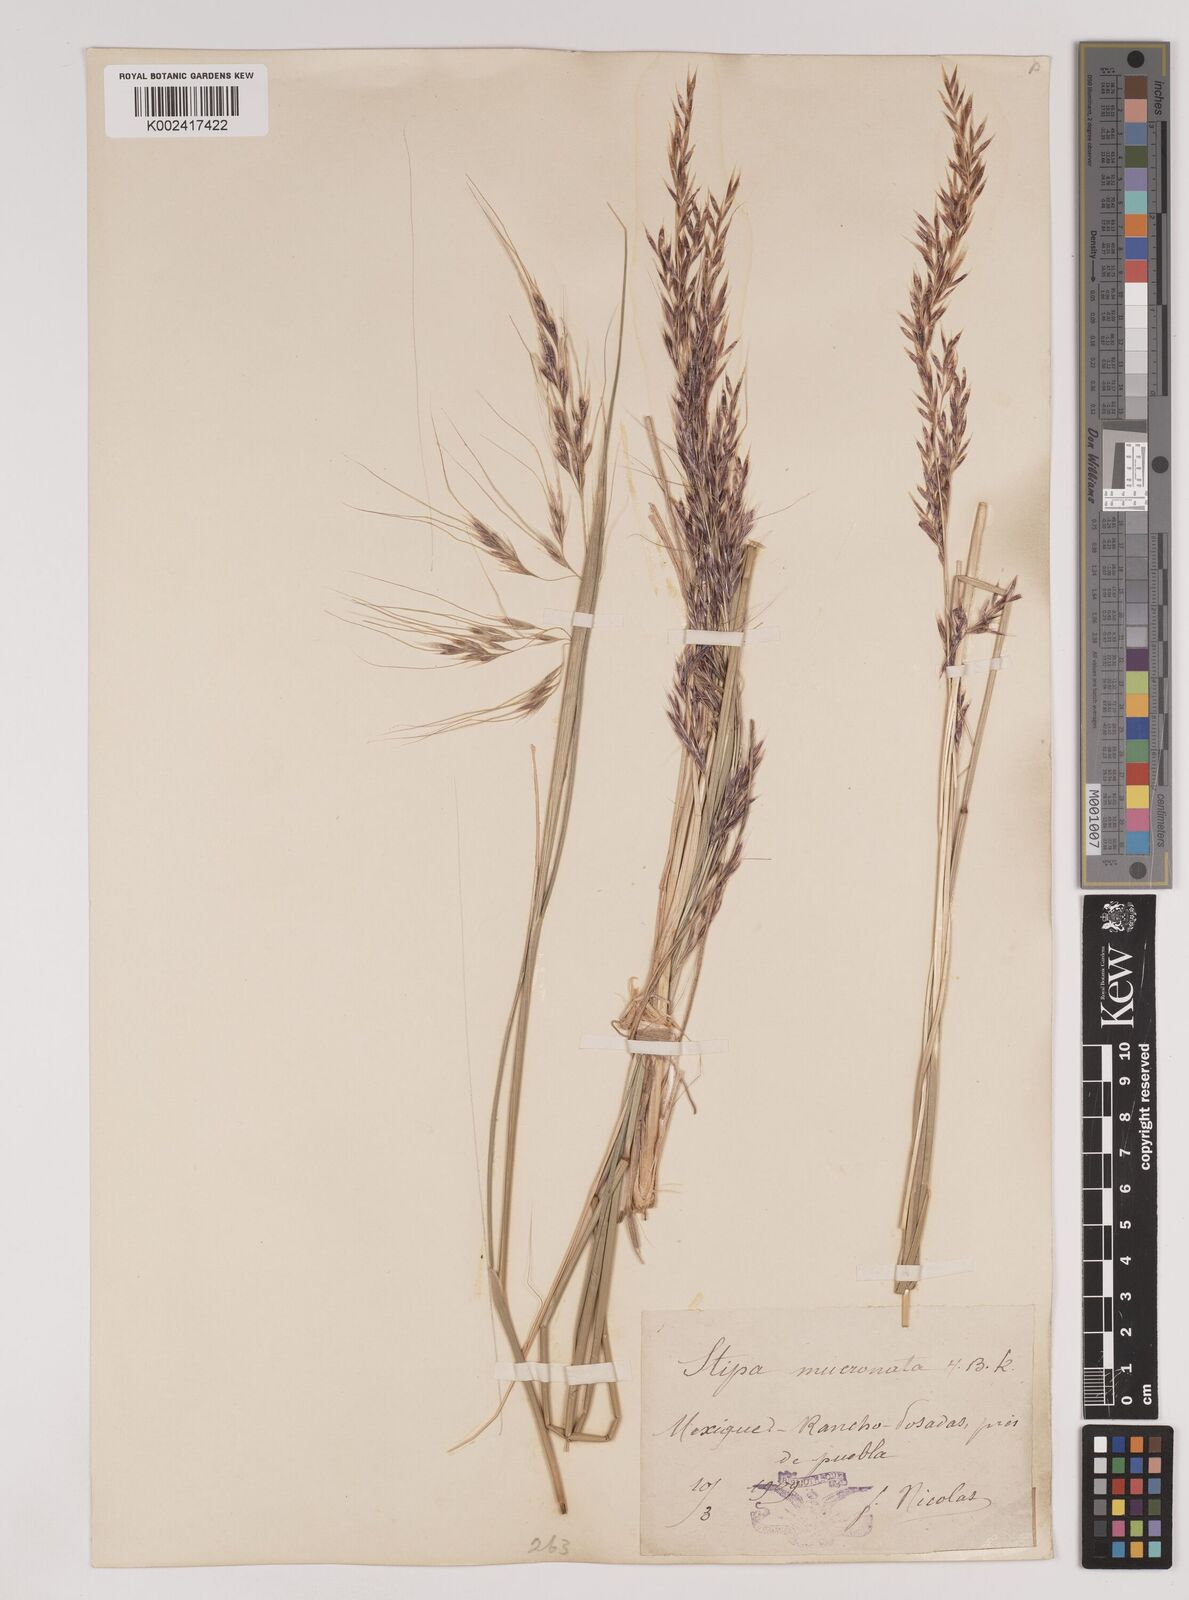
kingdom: Plantae
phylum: Tracheophyta
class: Liliopsida
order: Poales
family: Poaceae
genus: Nassella
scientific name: Nassella mucronata
